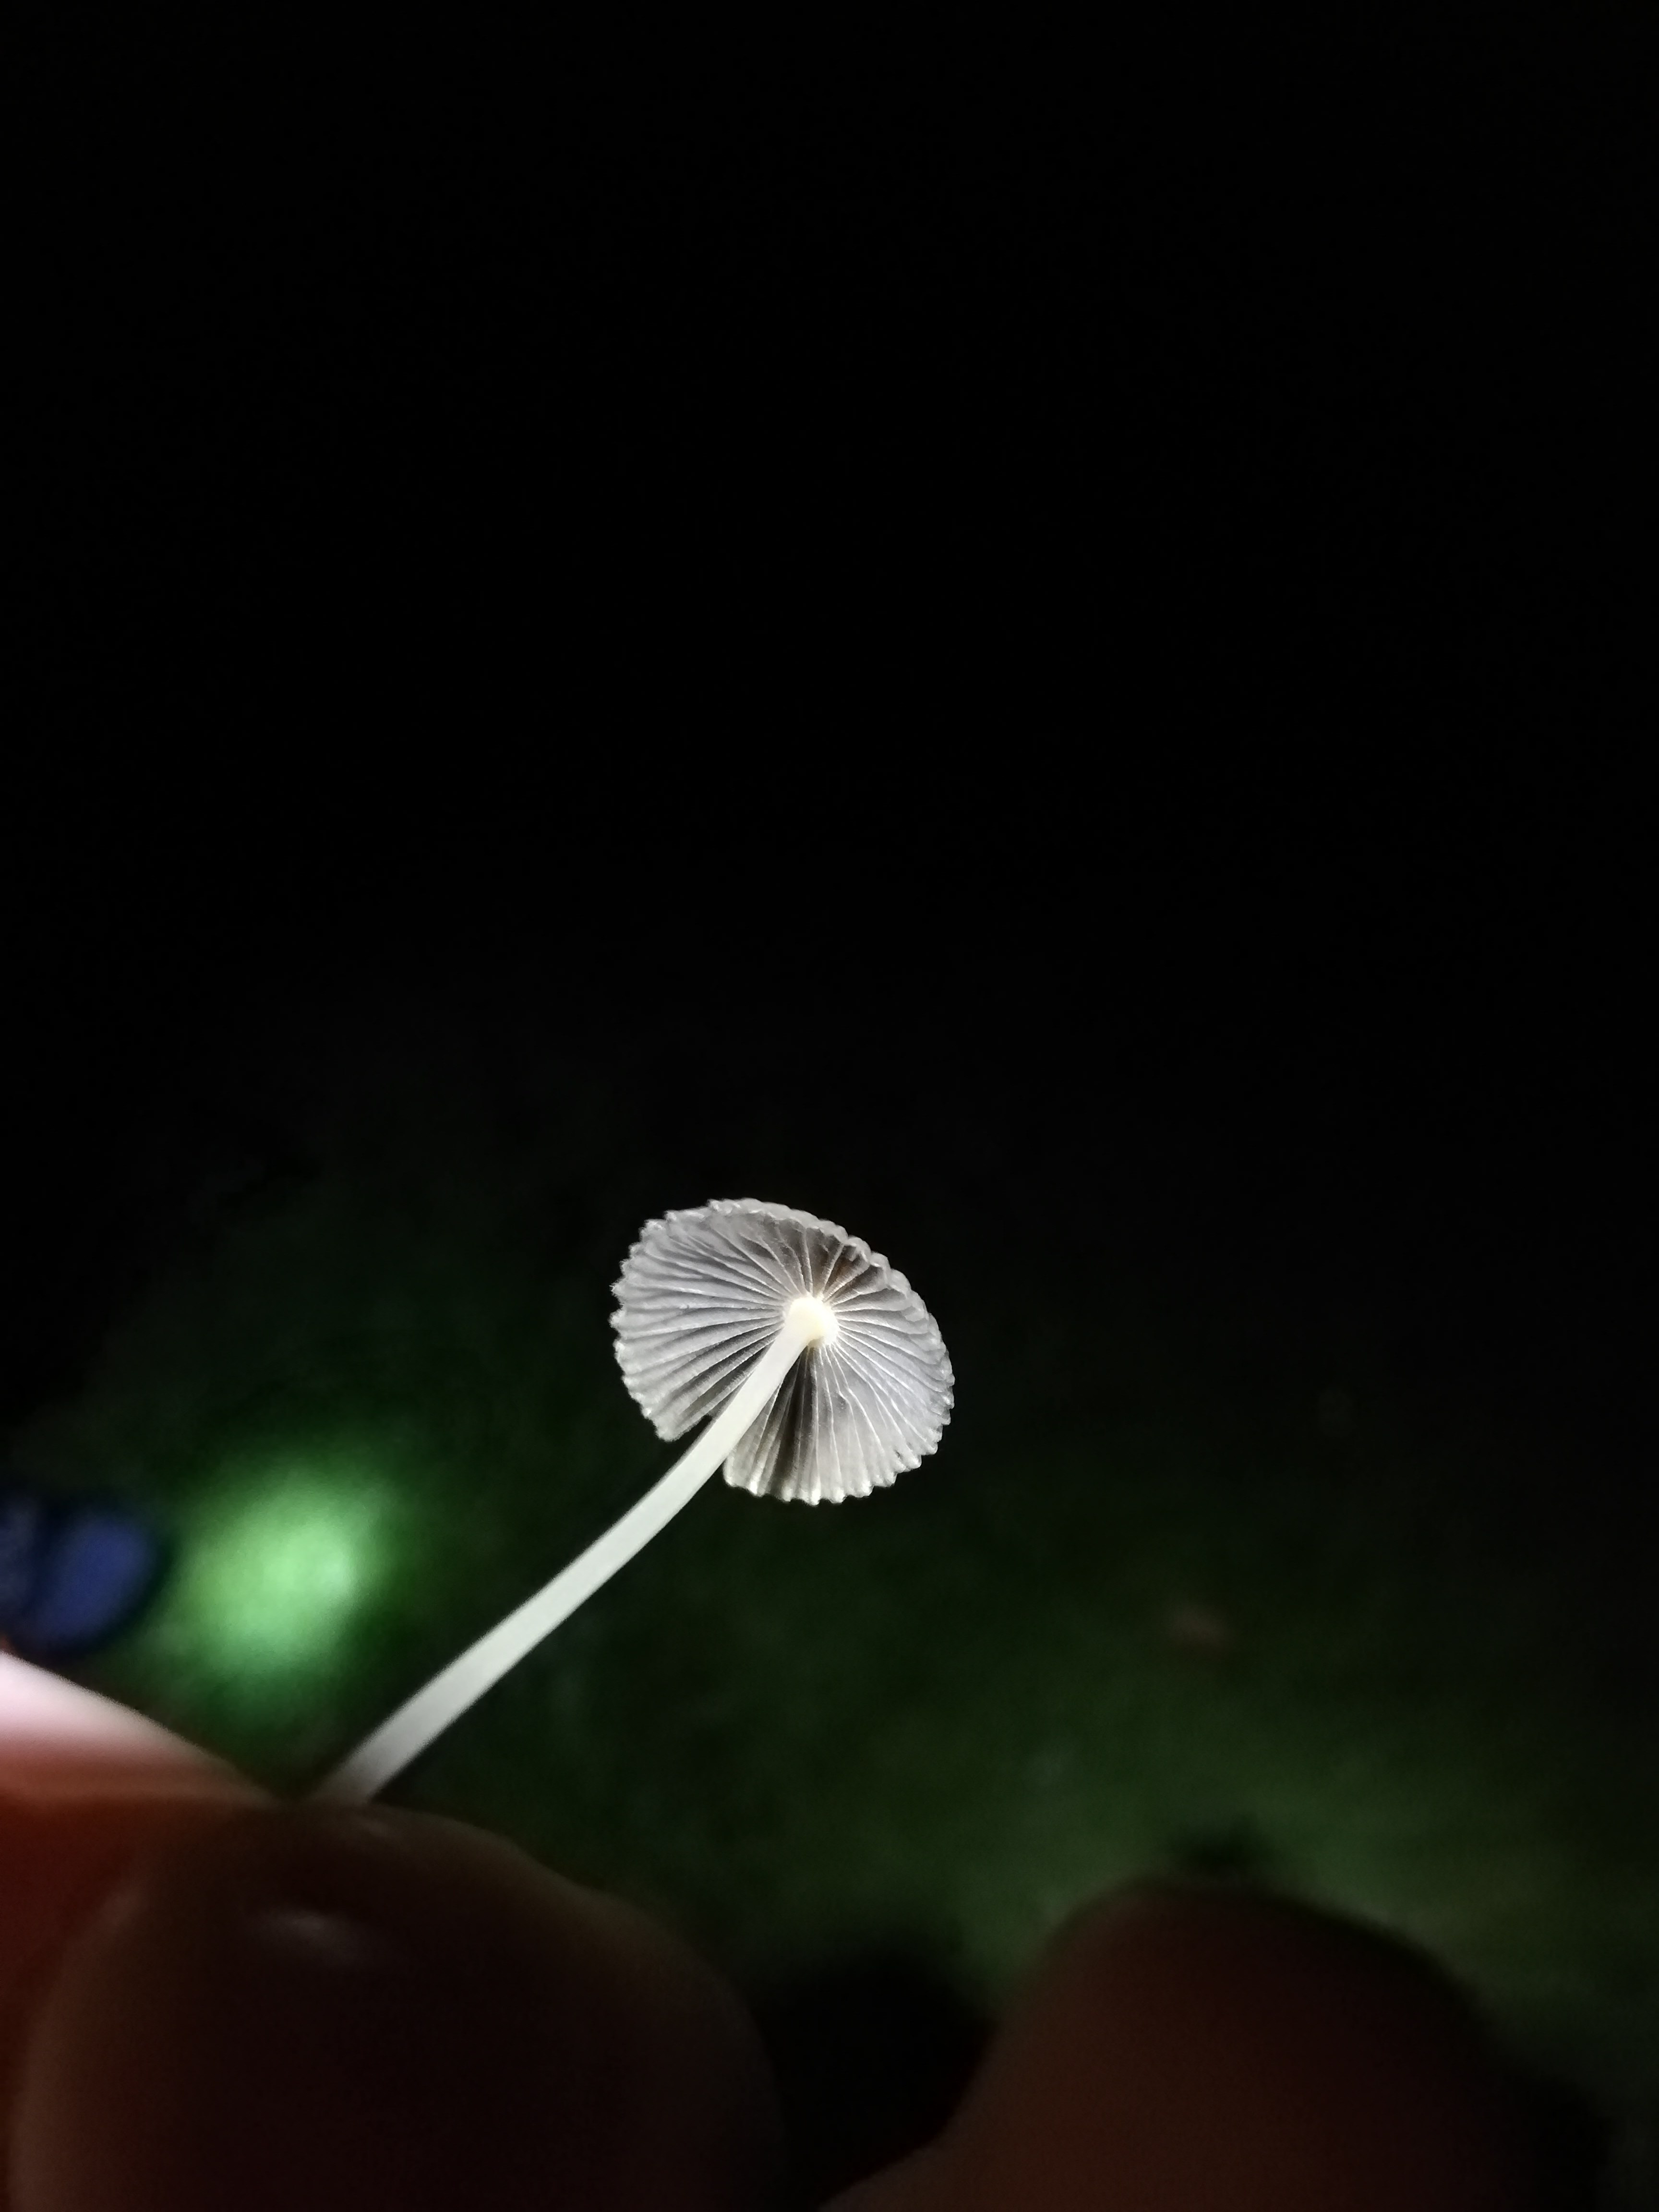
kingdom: Fungi
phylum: Basidiomycota
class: Agaricomycetes
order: Agaricales
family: Psathyrellaceae
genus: Parasola
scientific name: Parasola
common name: hjulhat
